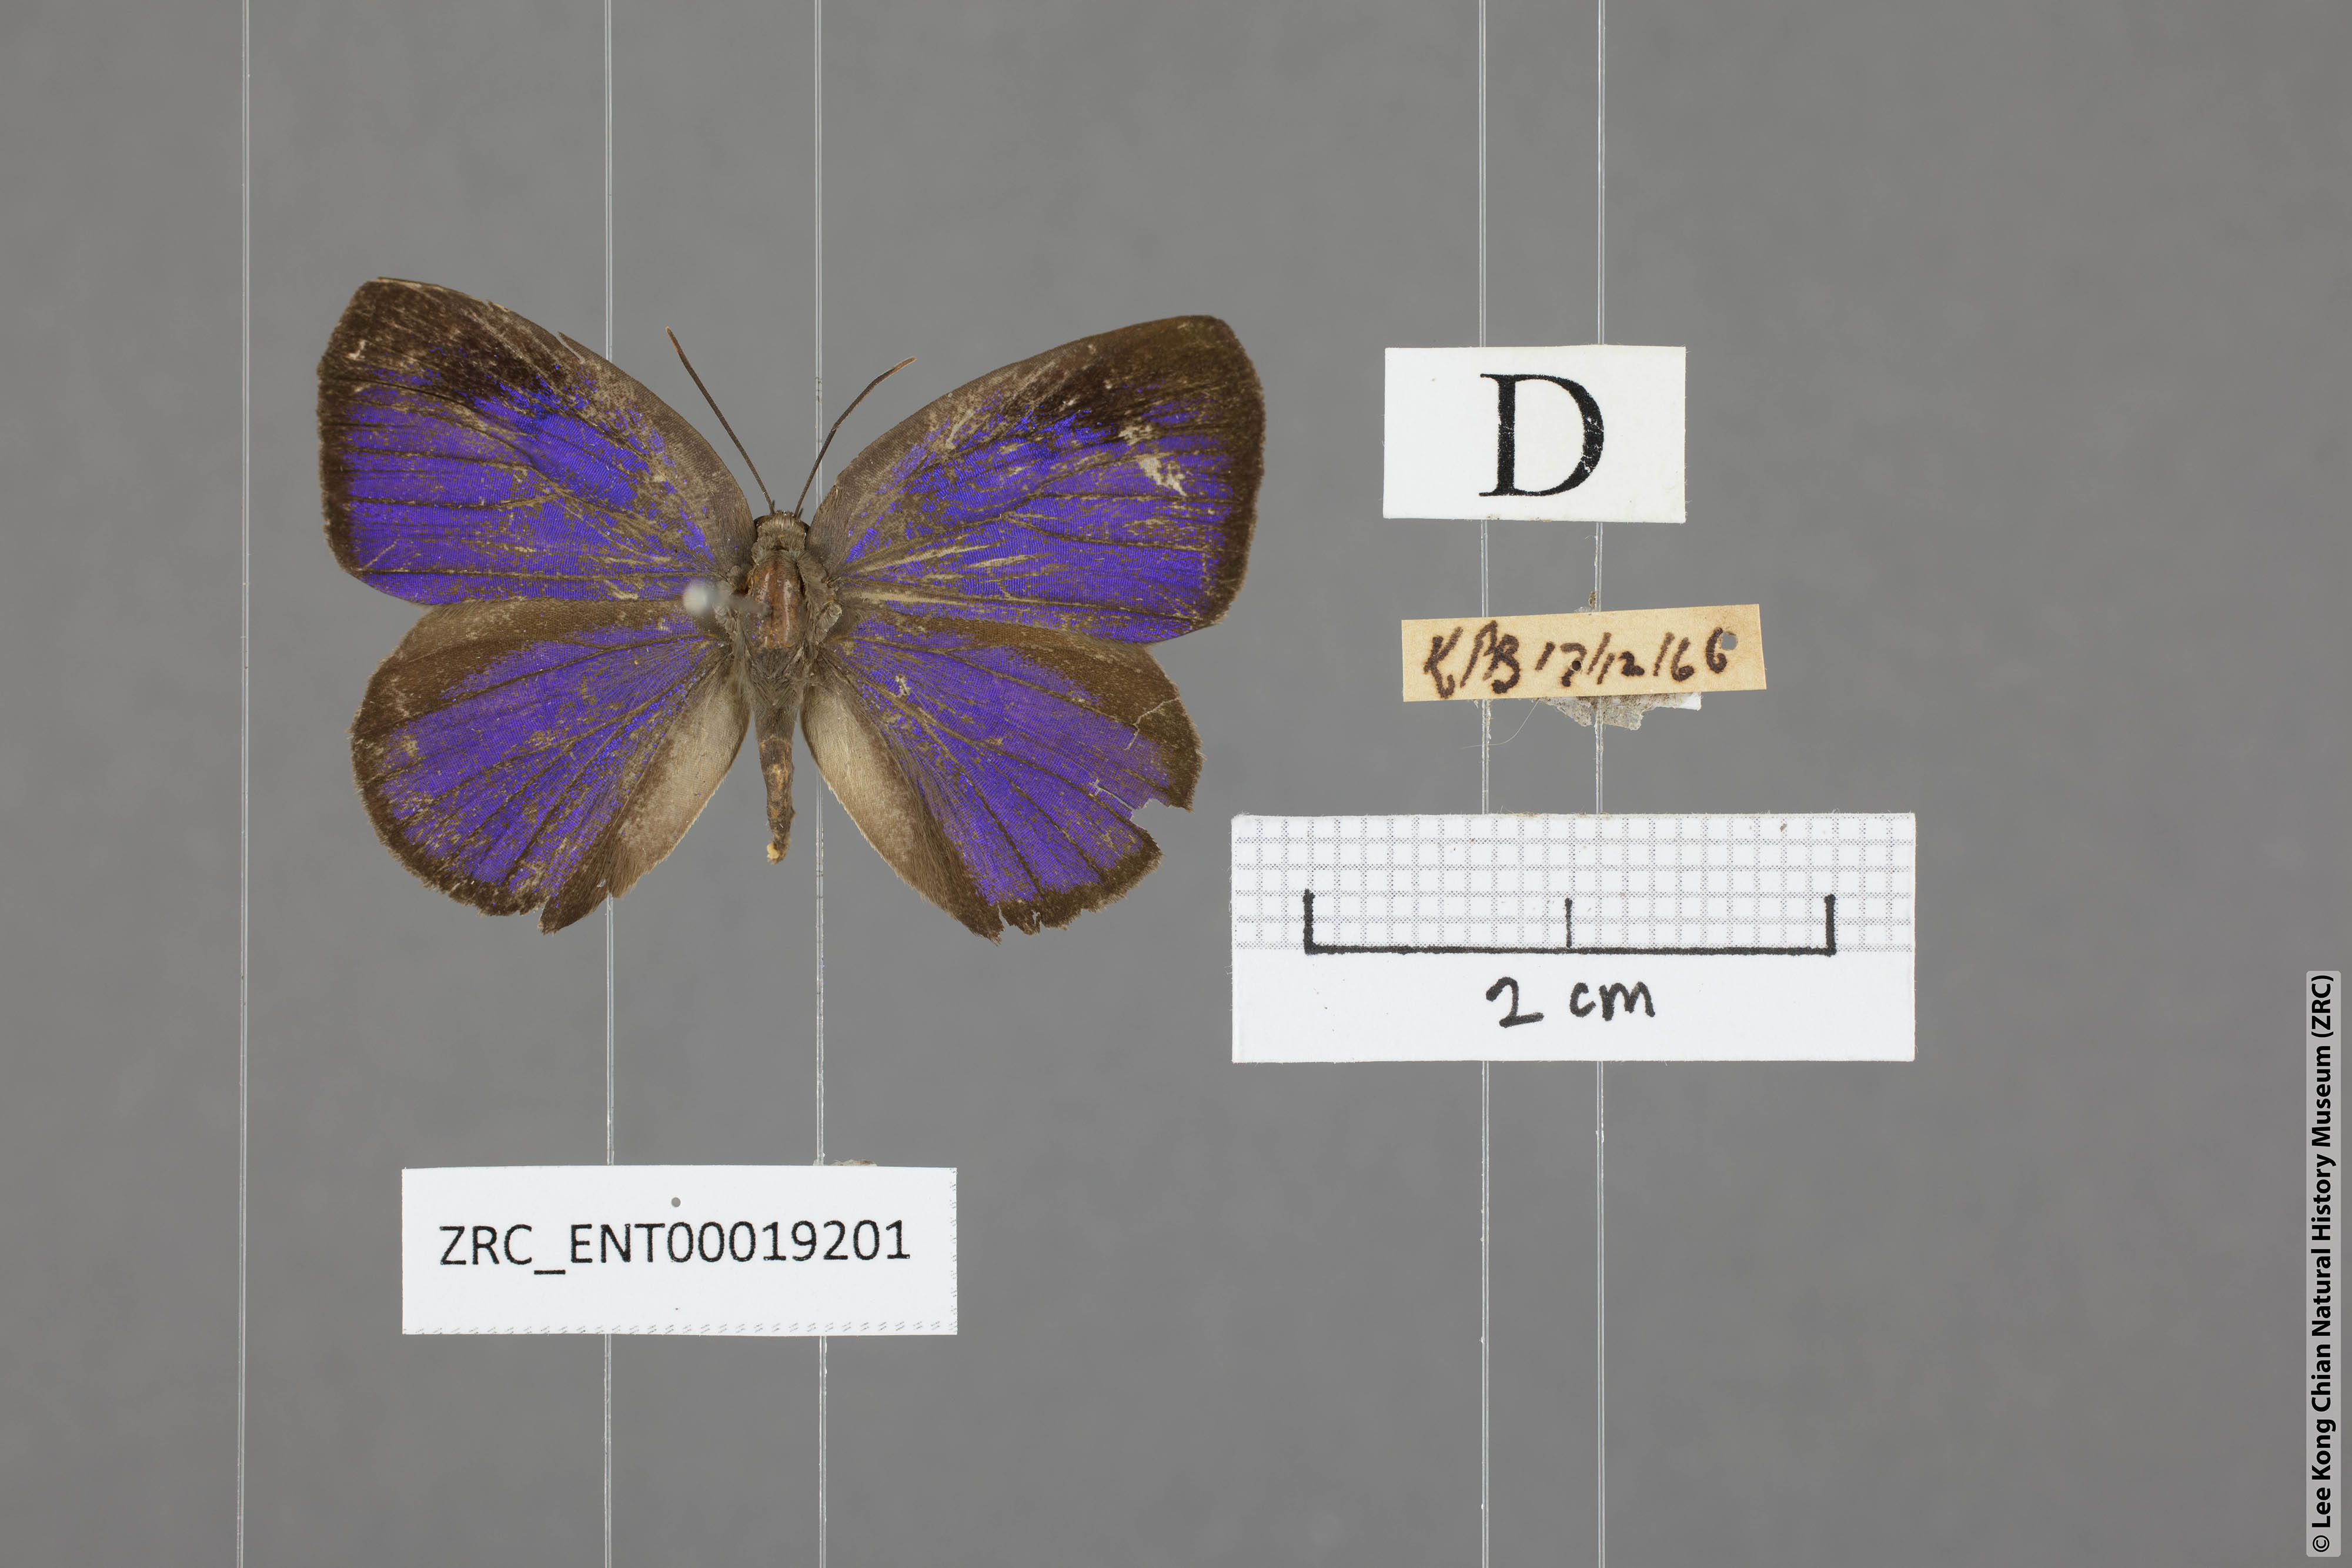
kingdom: Animalia
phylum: Arthropoda
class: Insecta
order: Lepidoptera
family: Lycaenidae
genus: Arhopala
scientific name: Arhopala arvina
